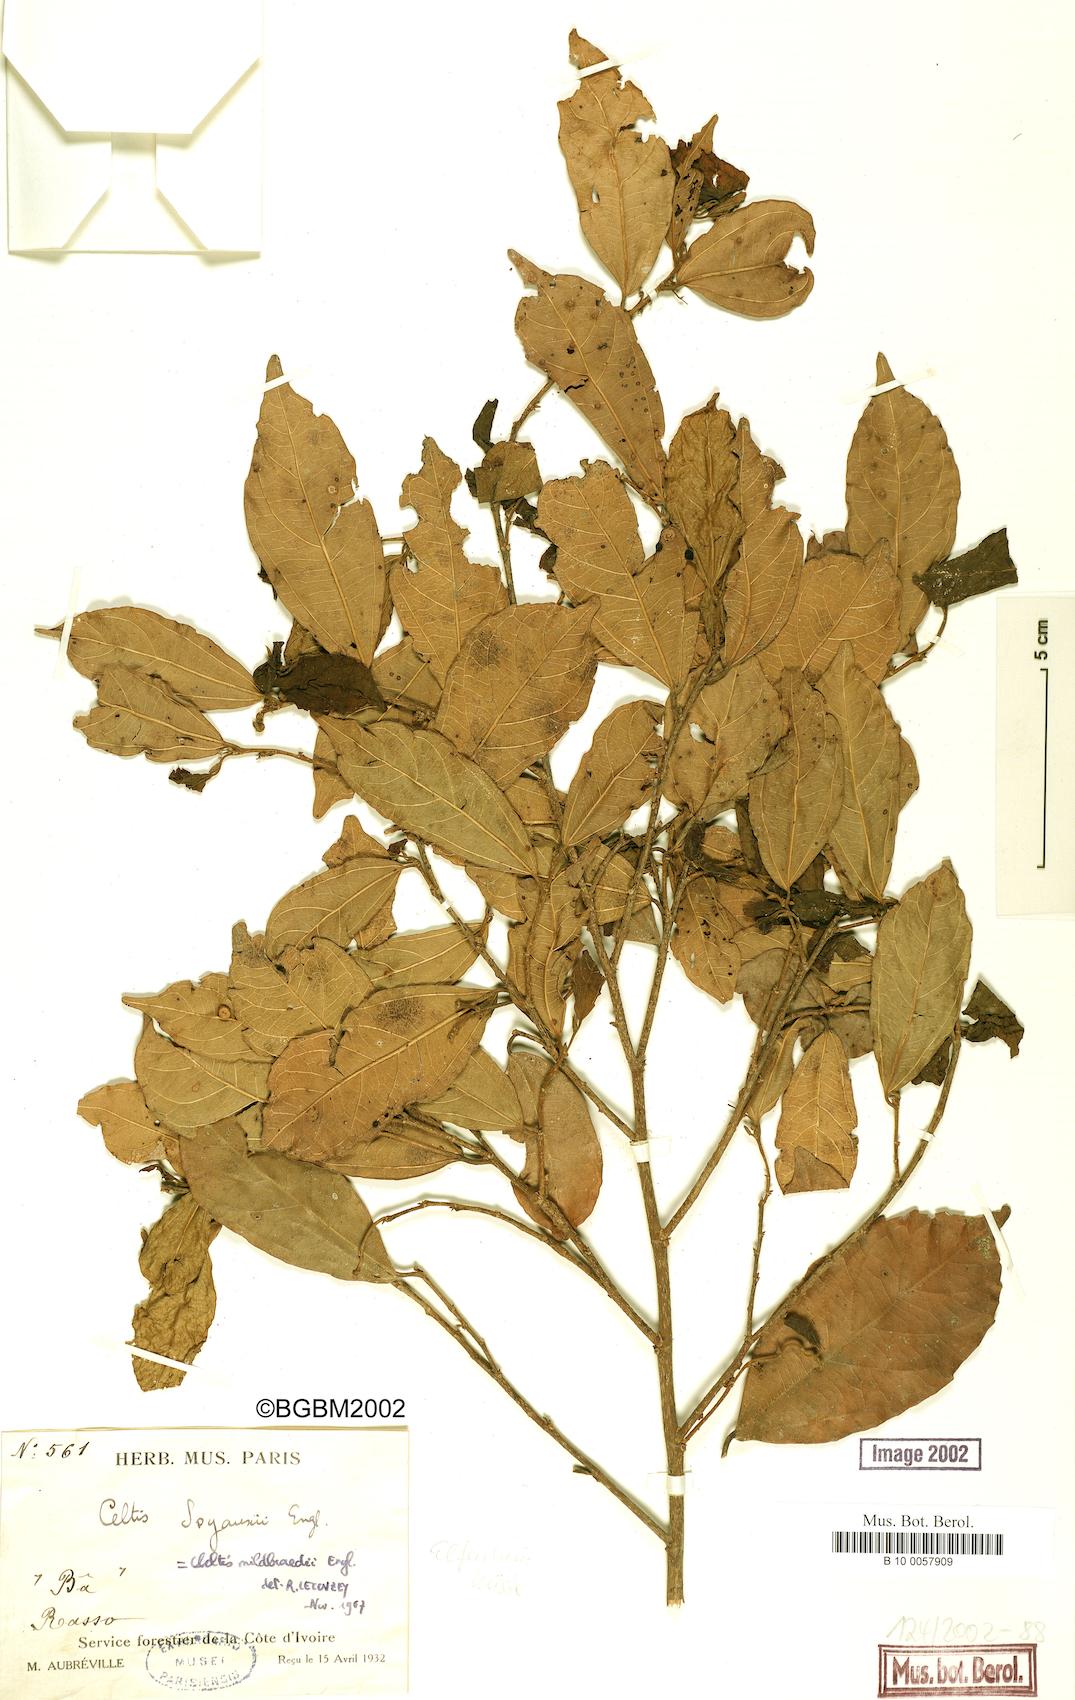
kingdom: Plantae
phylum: Tracheophyta
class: Magnoliopsida
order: Rosales
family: Cannabaceae
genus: Celtis
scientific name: Celtis zenkeri
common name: African celtis
